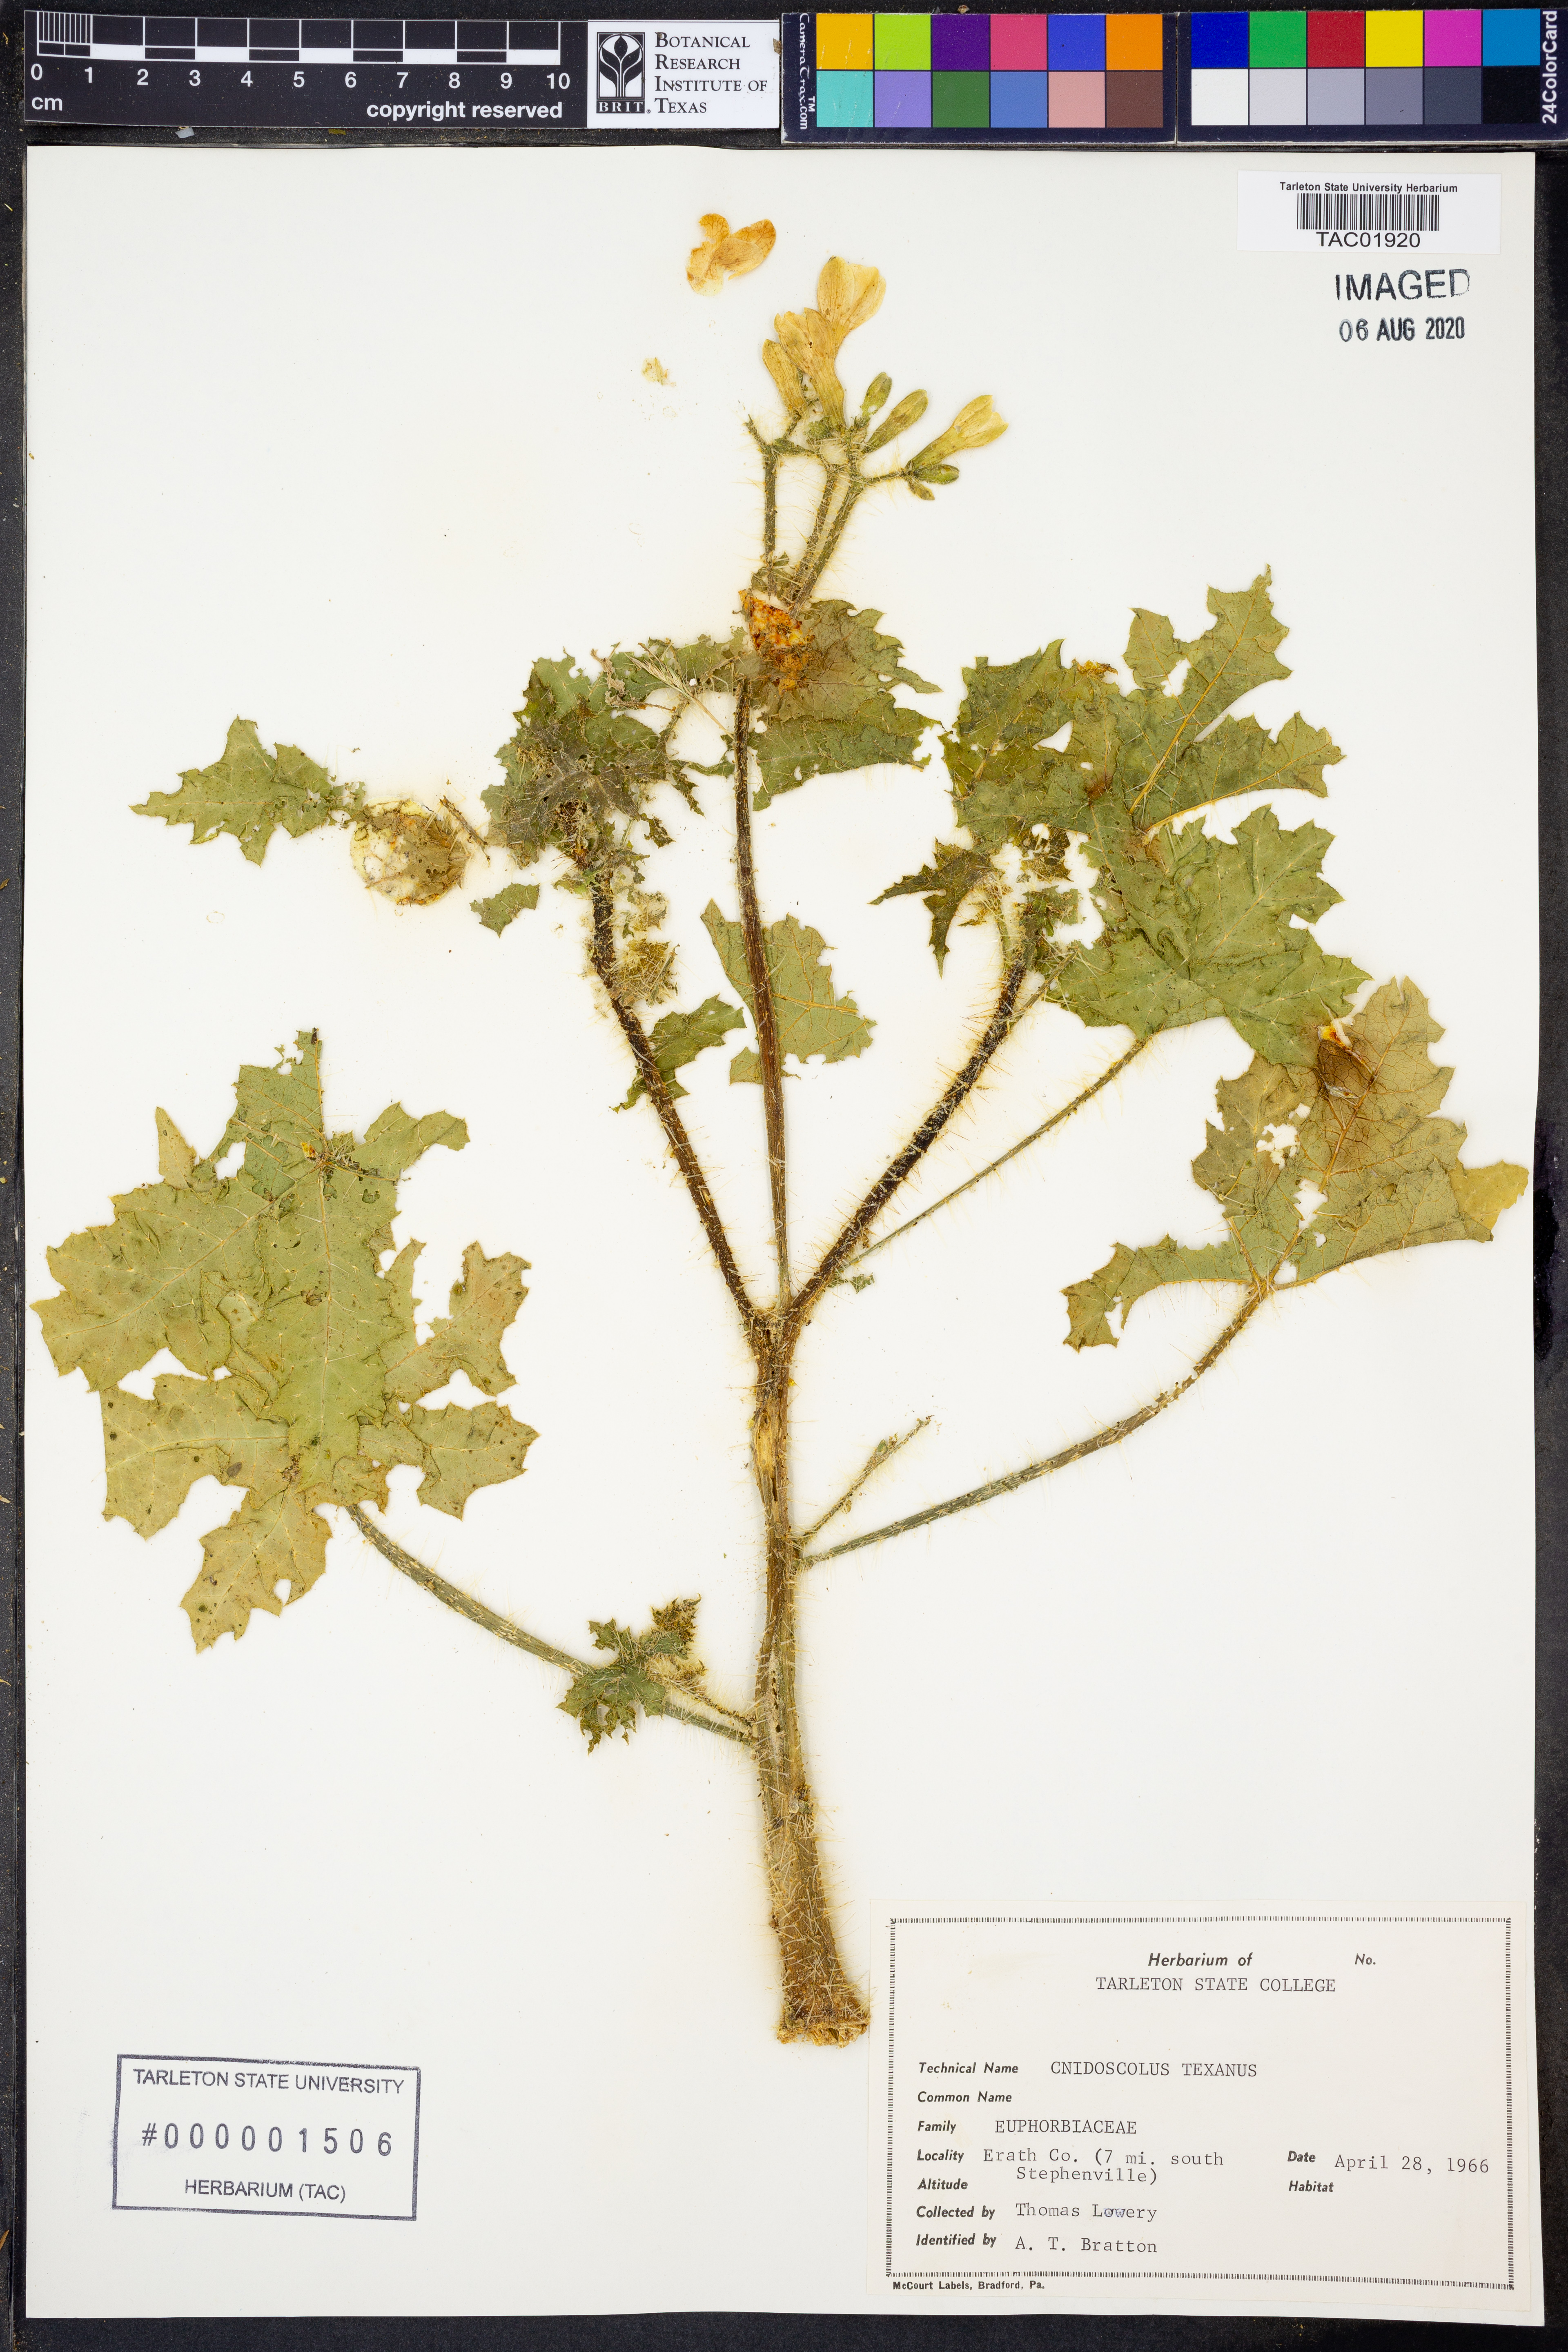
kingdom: Plantae
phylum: Tracheophyta
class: Magnoliopsida
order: Malpighiales
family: Euphorbiaceae
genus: Cnidoscolus
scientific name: Cnidoscolus texanus
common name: Texas bull-nettle
